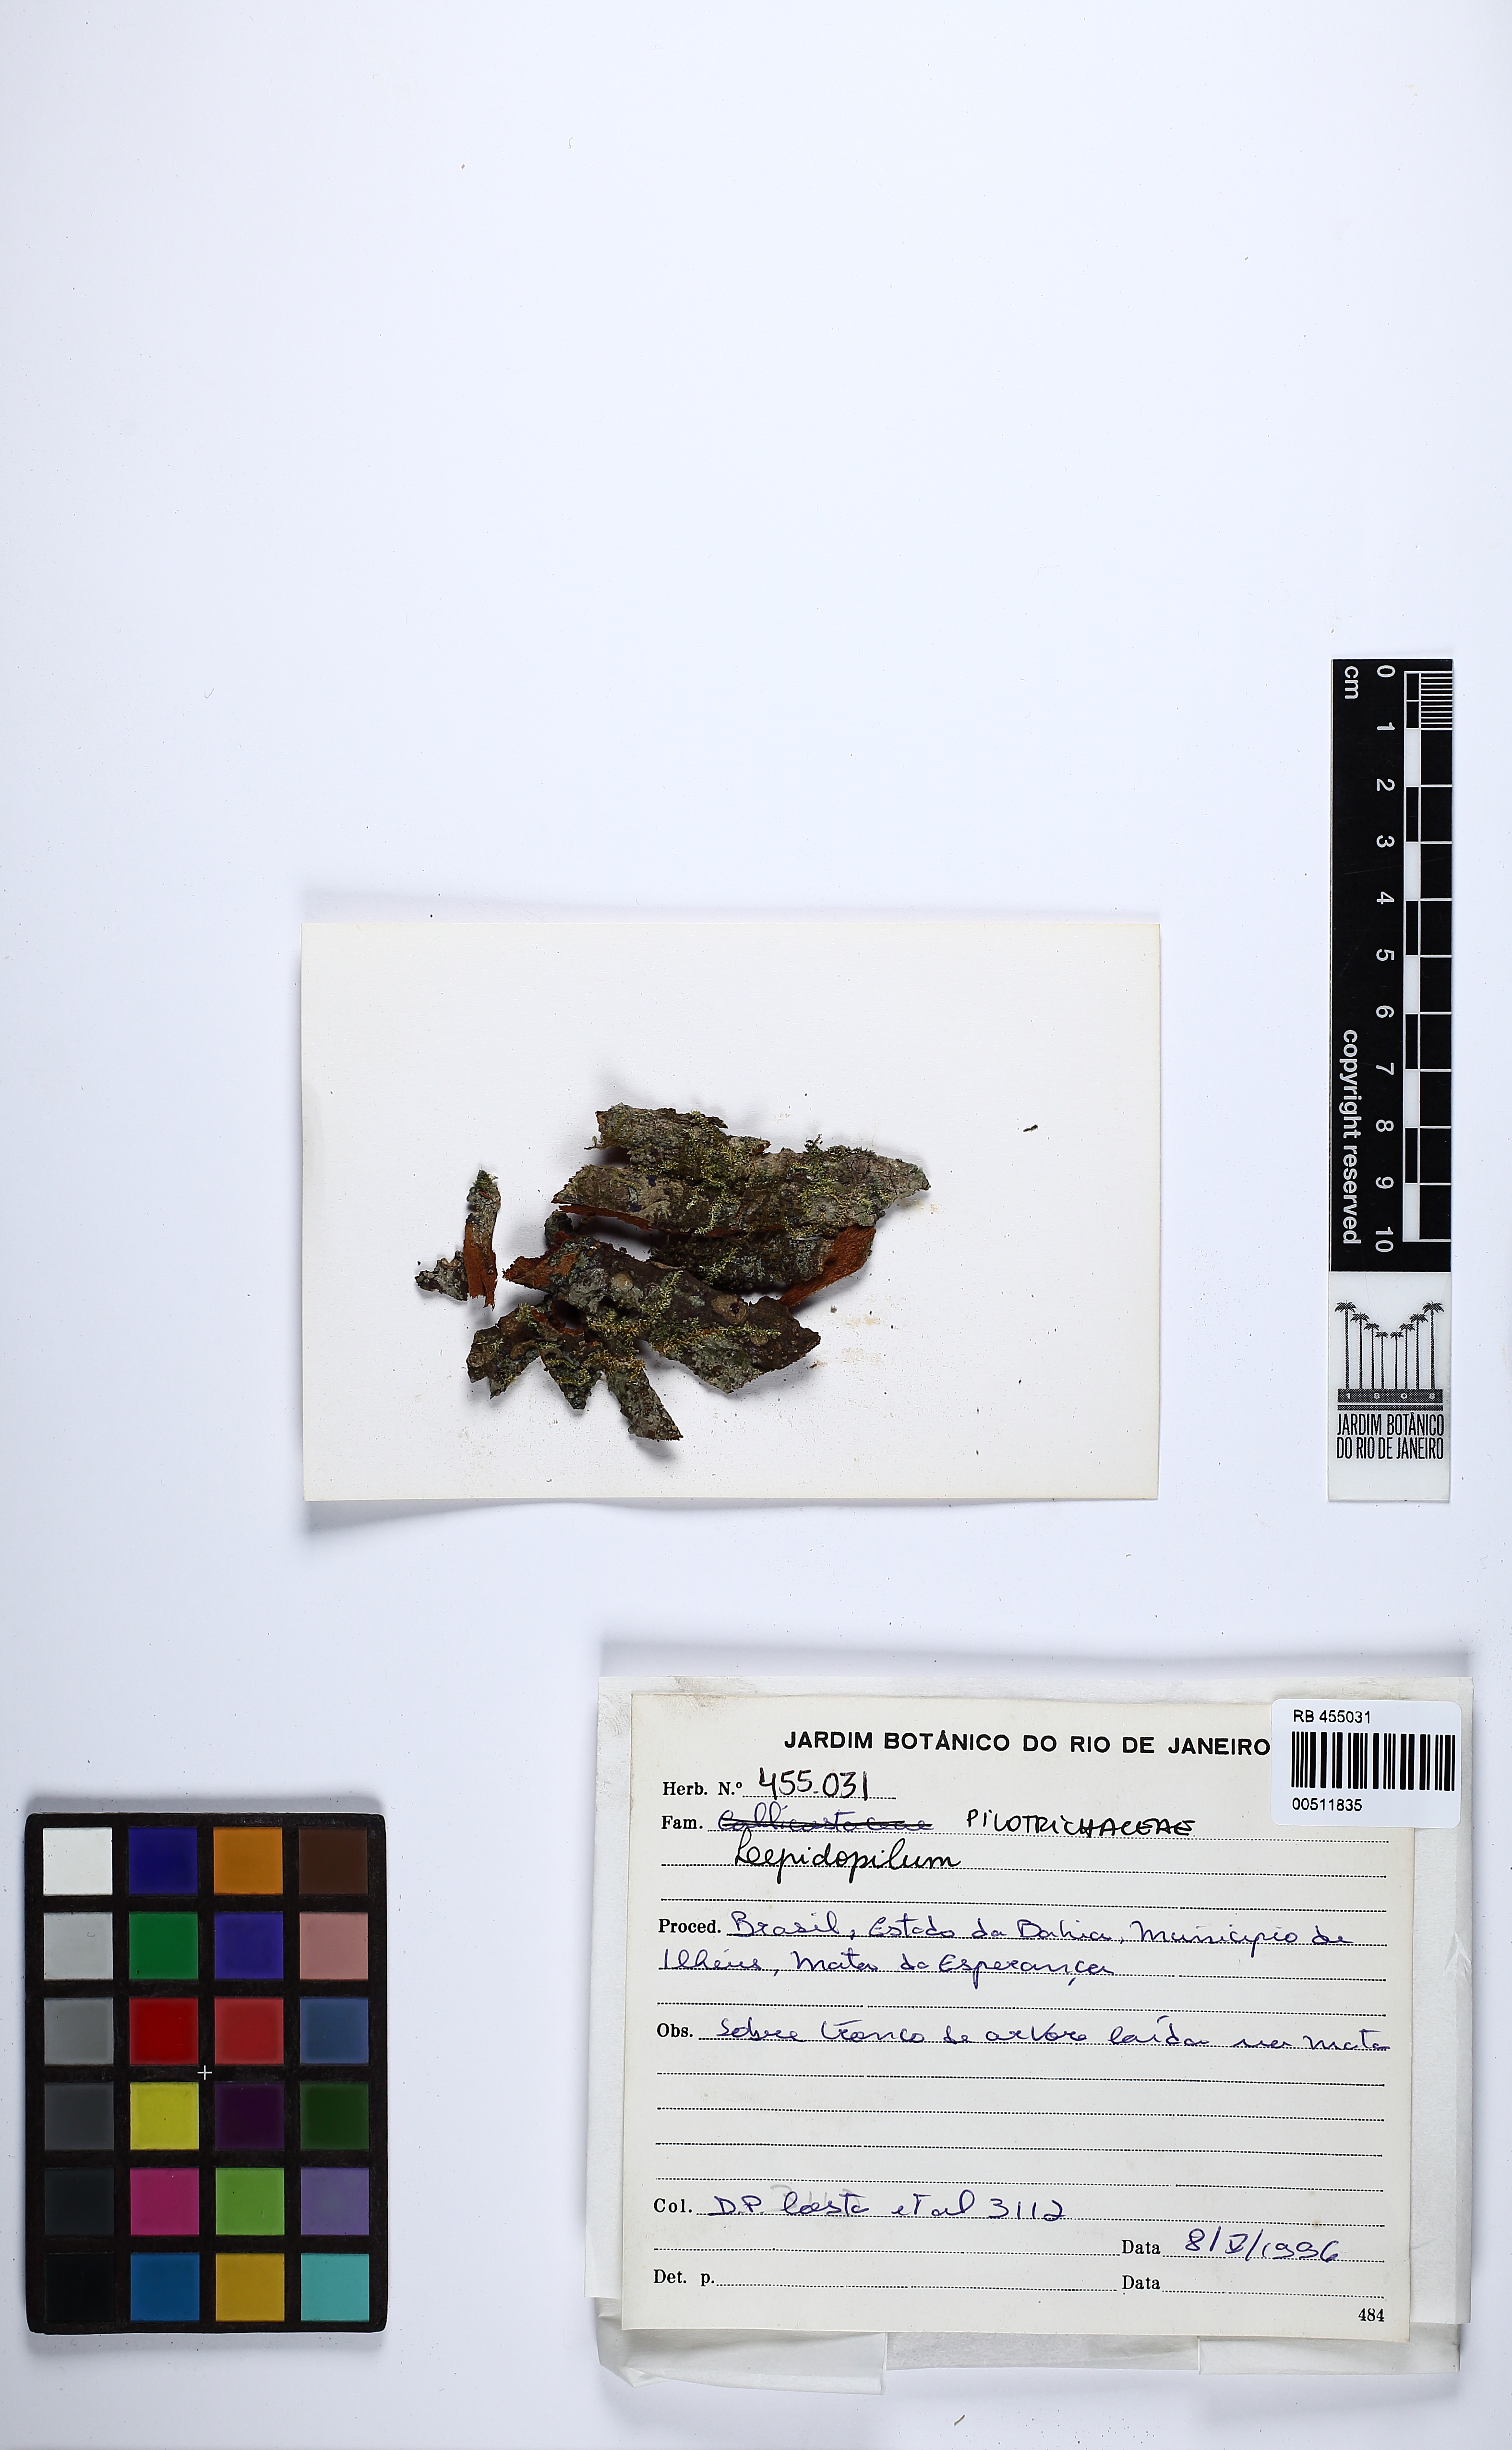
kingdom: Plantae
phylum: Bryophyta
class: Bryopsida
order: Hookeriales
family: Pilotrichaceae
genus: Lepidopilum
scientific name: Lepidopilum
